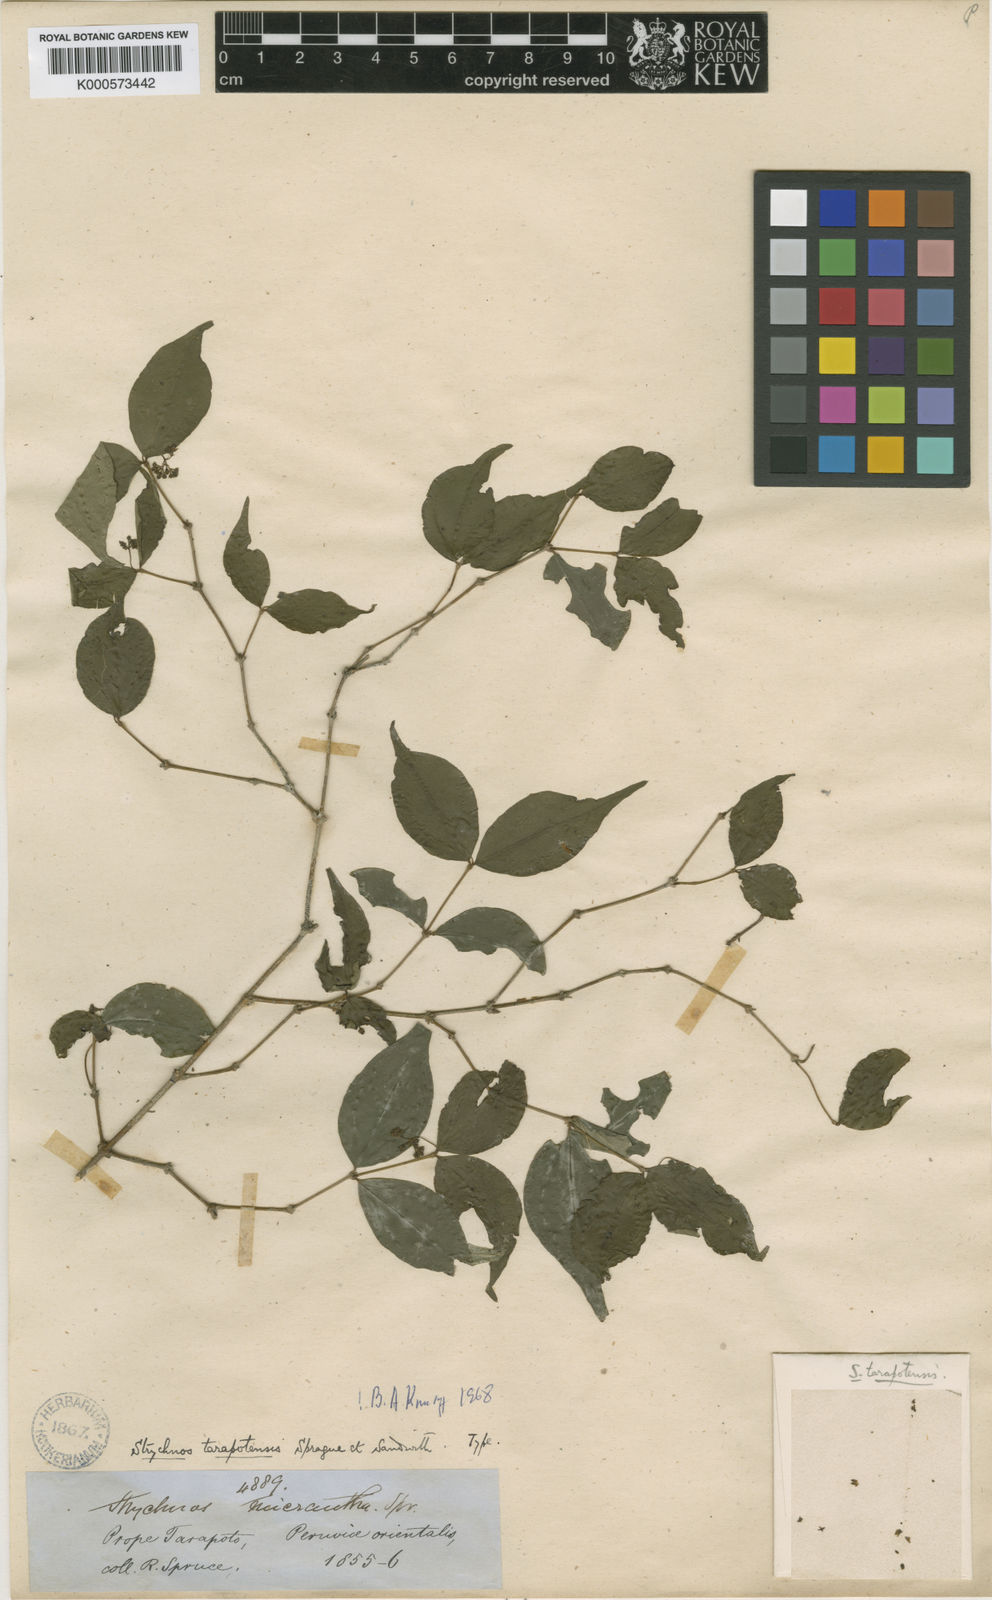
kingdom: Plantae
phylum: Tracheophyta
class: Magnoliopsida
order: Gentianales
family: Loganiaceae
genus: Strychnos
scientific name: Strychnos tarapotensis
